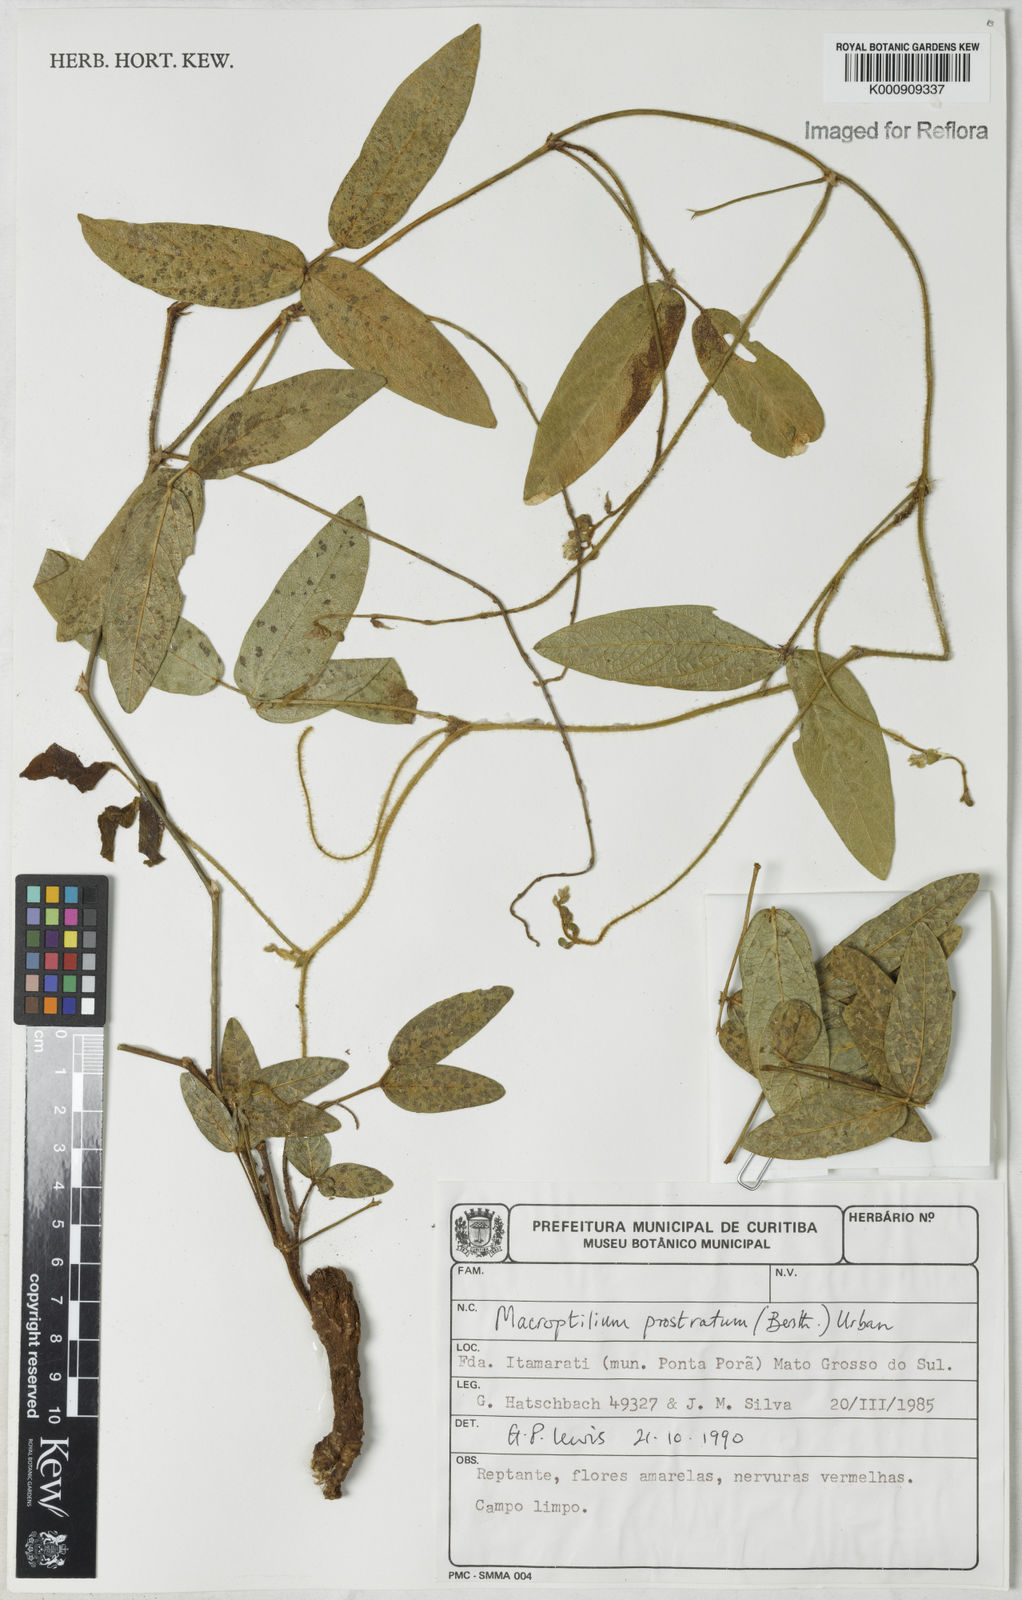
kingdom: Plantae
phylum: Tracheophyta
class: Magnoliopsida
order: Fabales
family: Fabaceae
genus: Macroptilium
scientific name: Macroptilium prostratum
